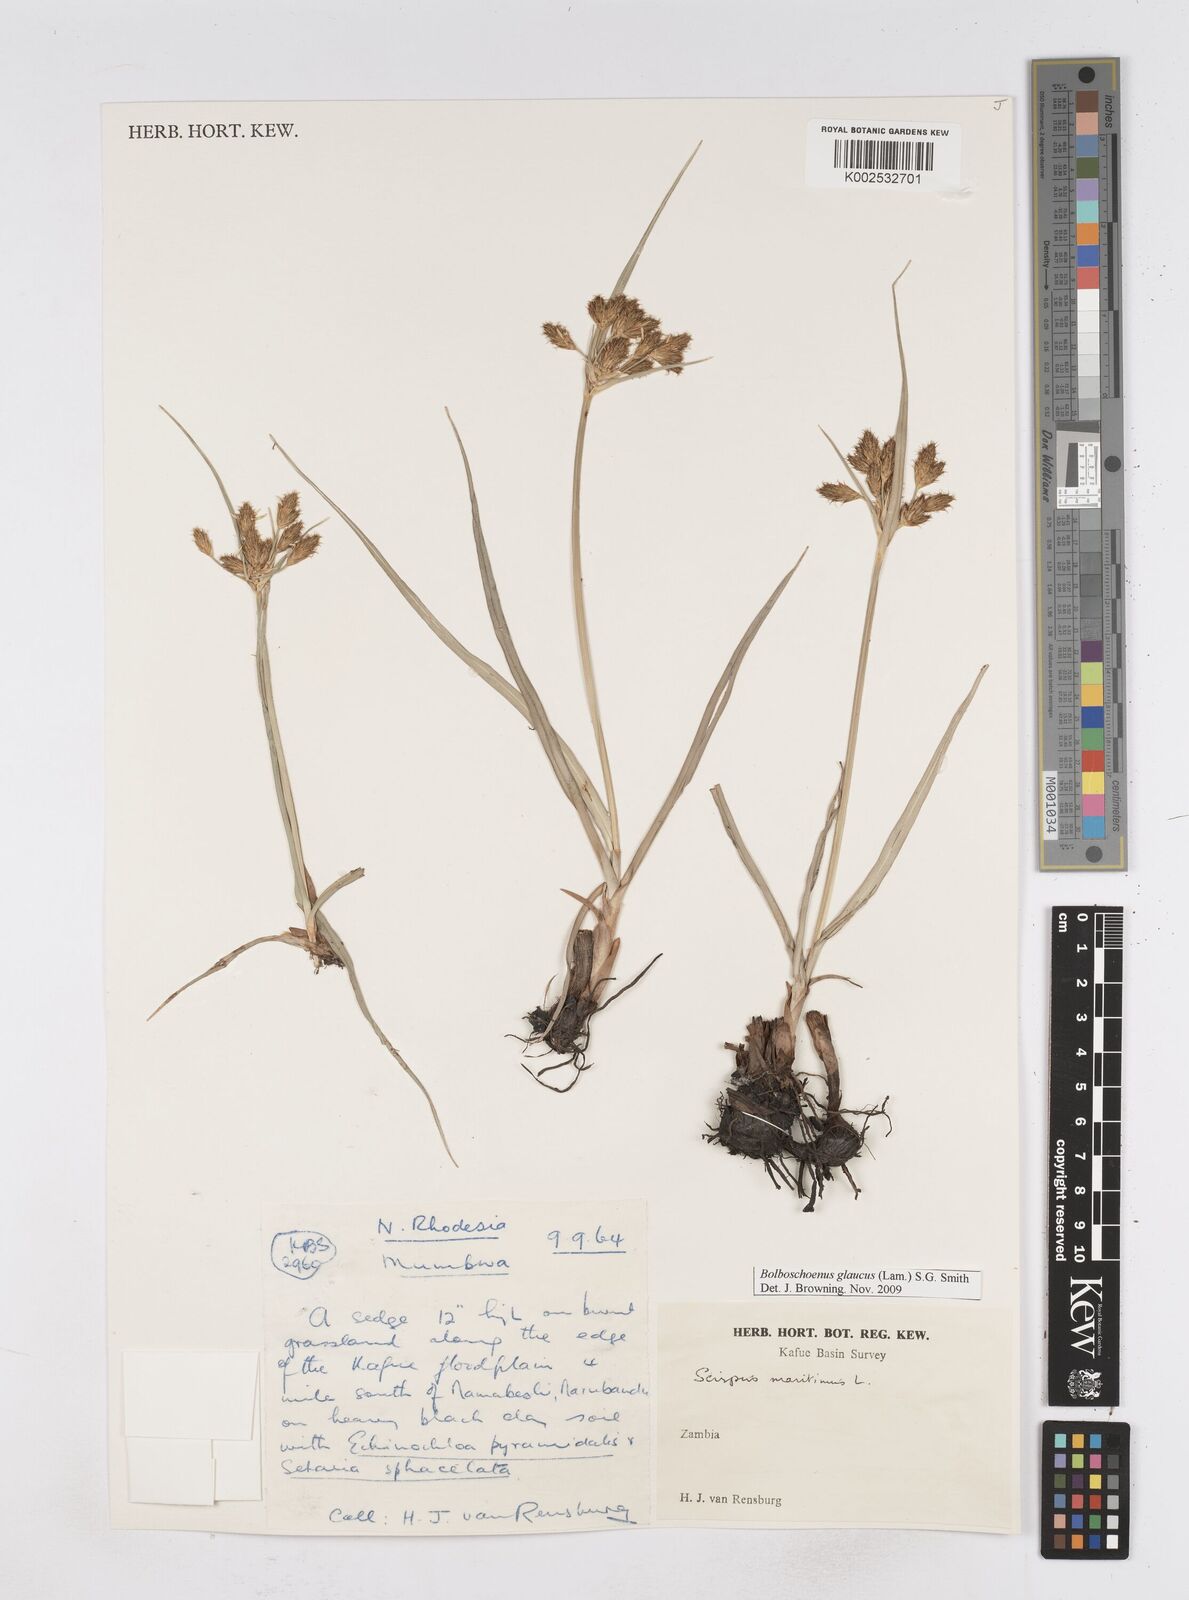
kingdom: Plantae
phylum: Tracheophyta
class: Liliopsida
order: Poales
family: Cyperaceae
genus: Bolboschoenus
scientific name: Bolboschoenus glaucus
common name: Tuberous bulrush
